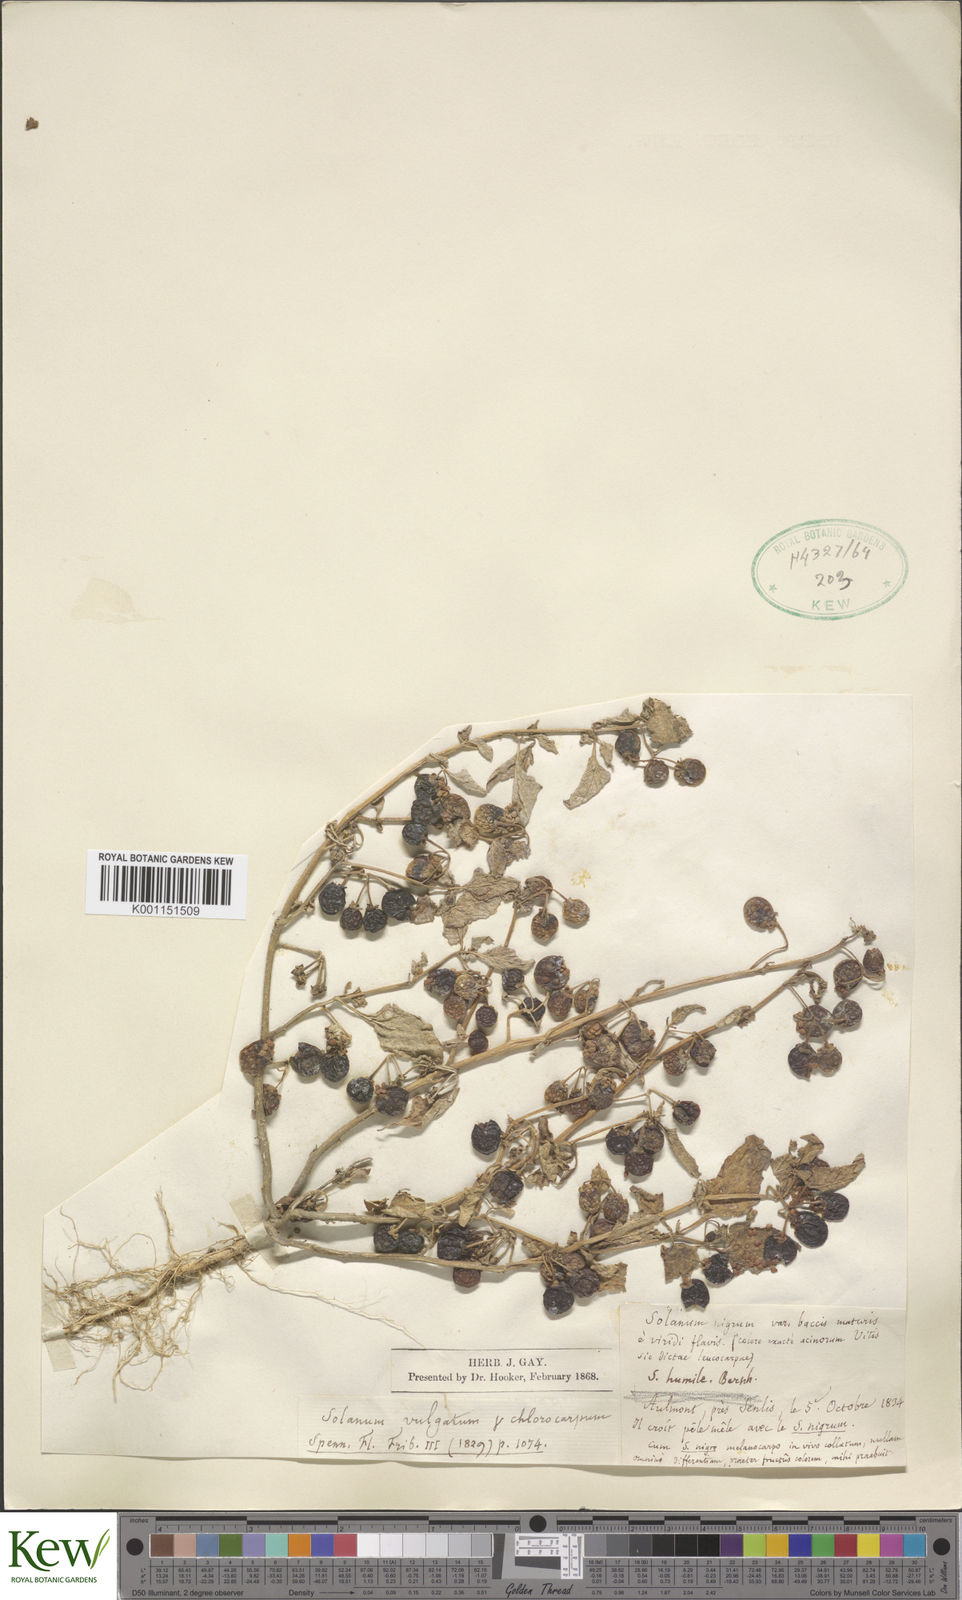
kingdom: Plantae
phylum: Tracheophyta
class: Magnoliopsida
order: Solanales
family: Solanaceae
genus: Solanum
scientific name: Solanum villosum
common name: Red nightshade
